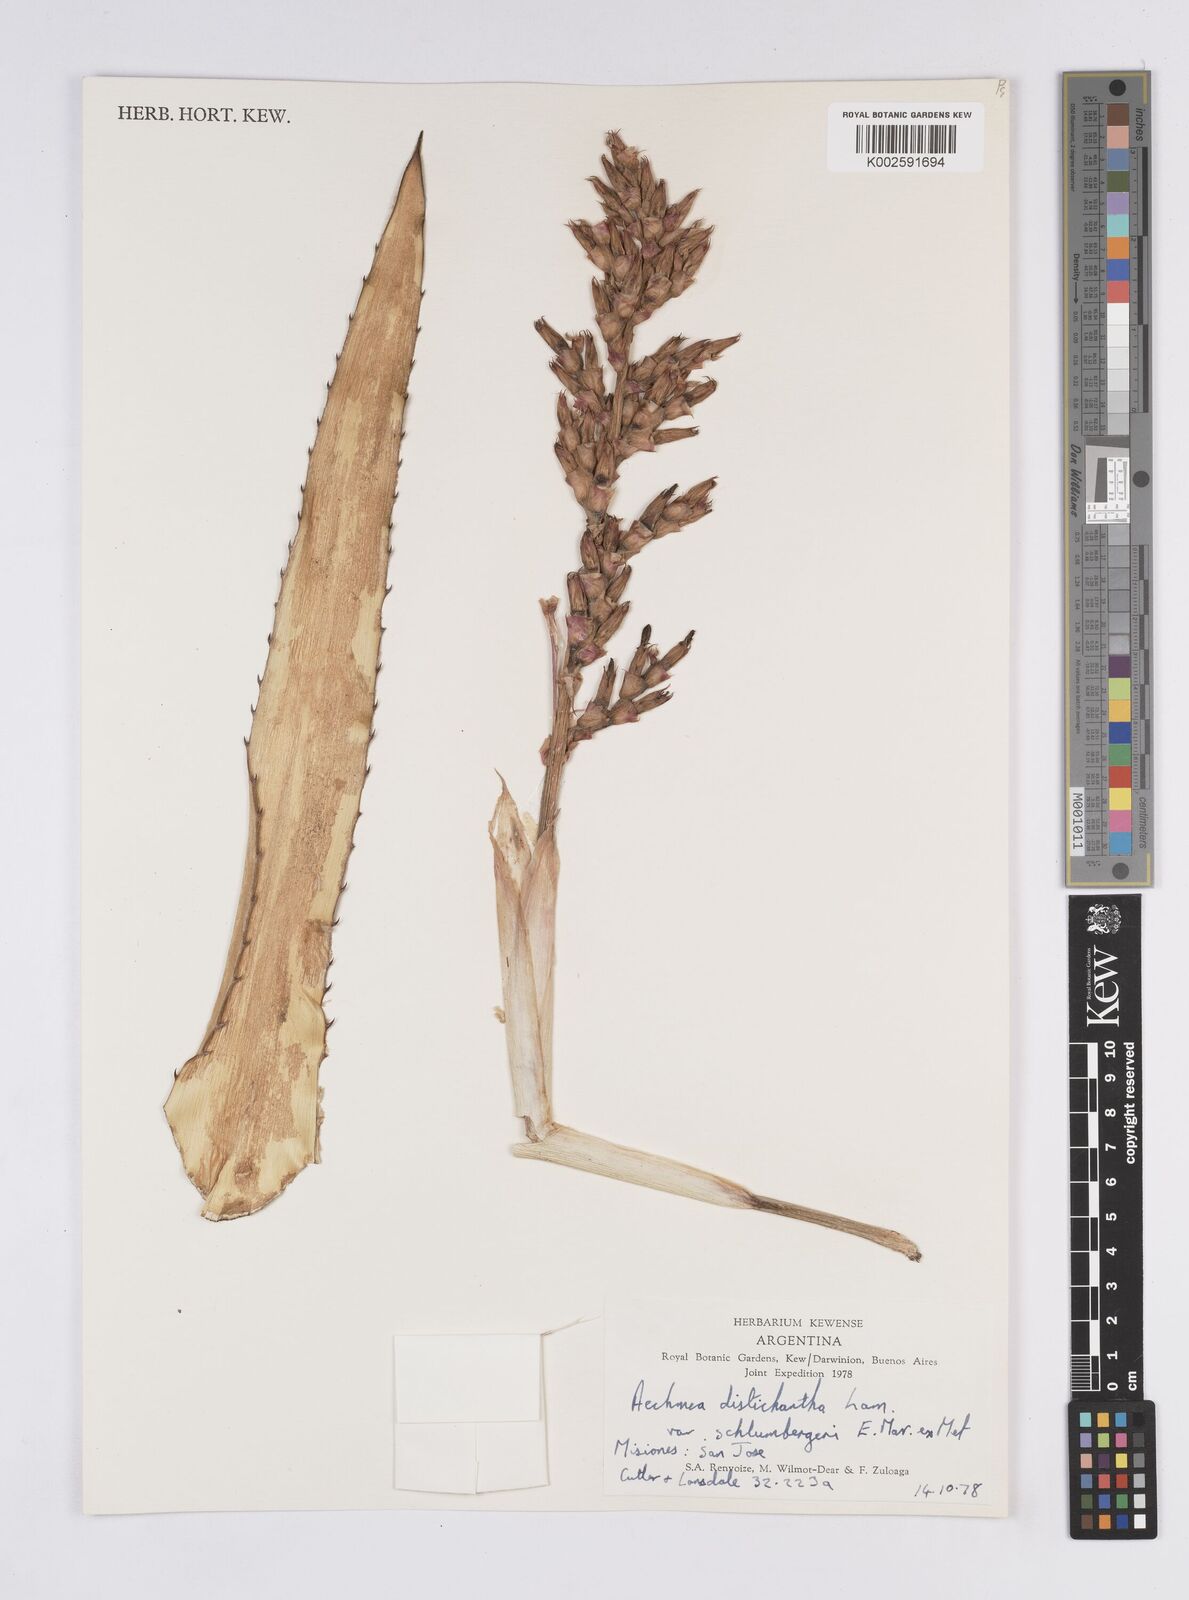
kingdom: Plantae
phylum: Tracheophyta
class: Liliopsida
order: Poales
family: Bromeliaceae
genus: Aechmea
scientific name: Aechmea distichantha
